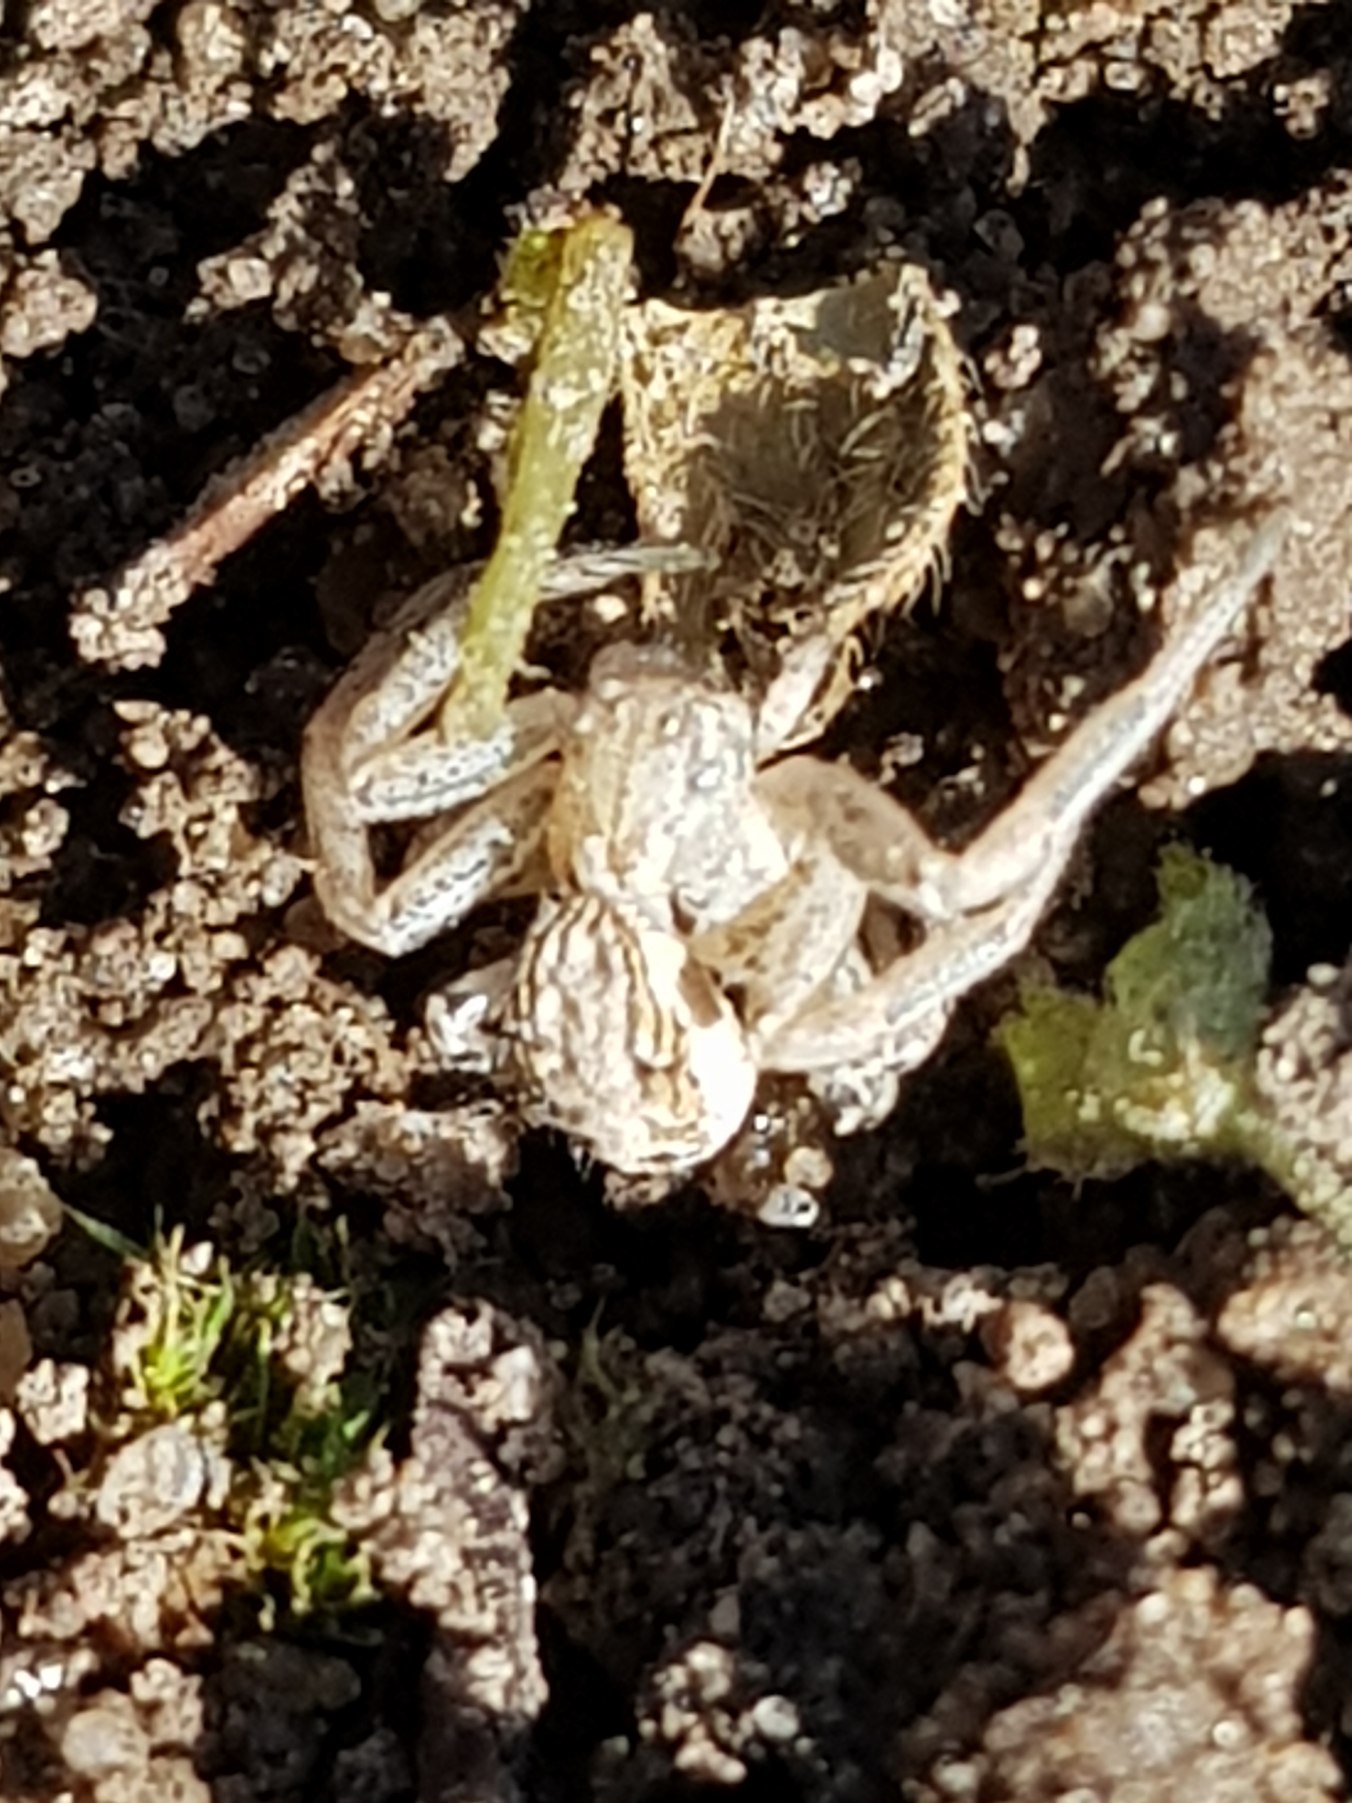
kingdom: Animalia
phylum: Arthropoda
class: Arachnida
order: Araneae
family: Thomisidae
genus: Xysticus
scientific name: Xysticus
